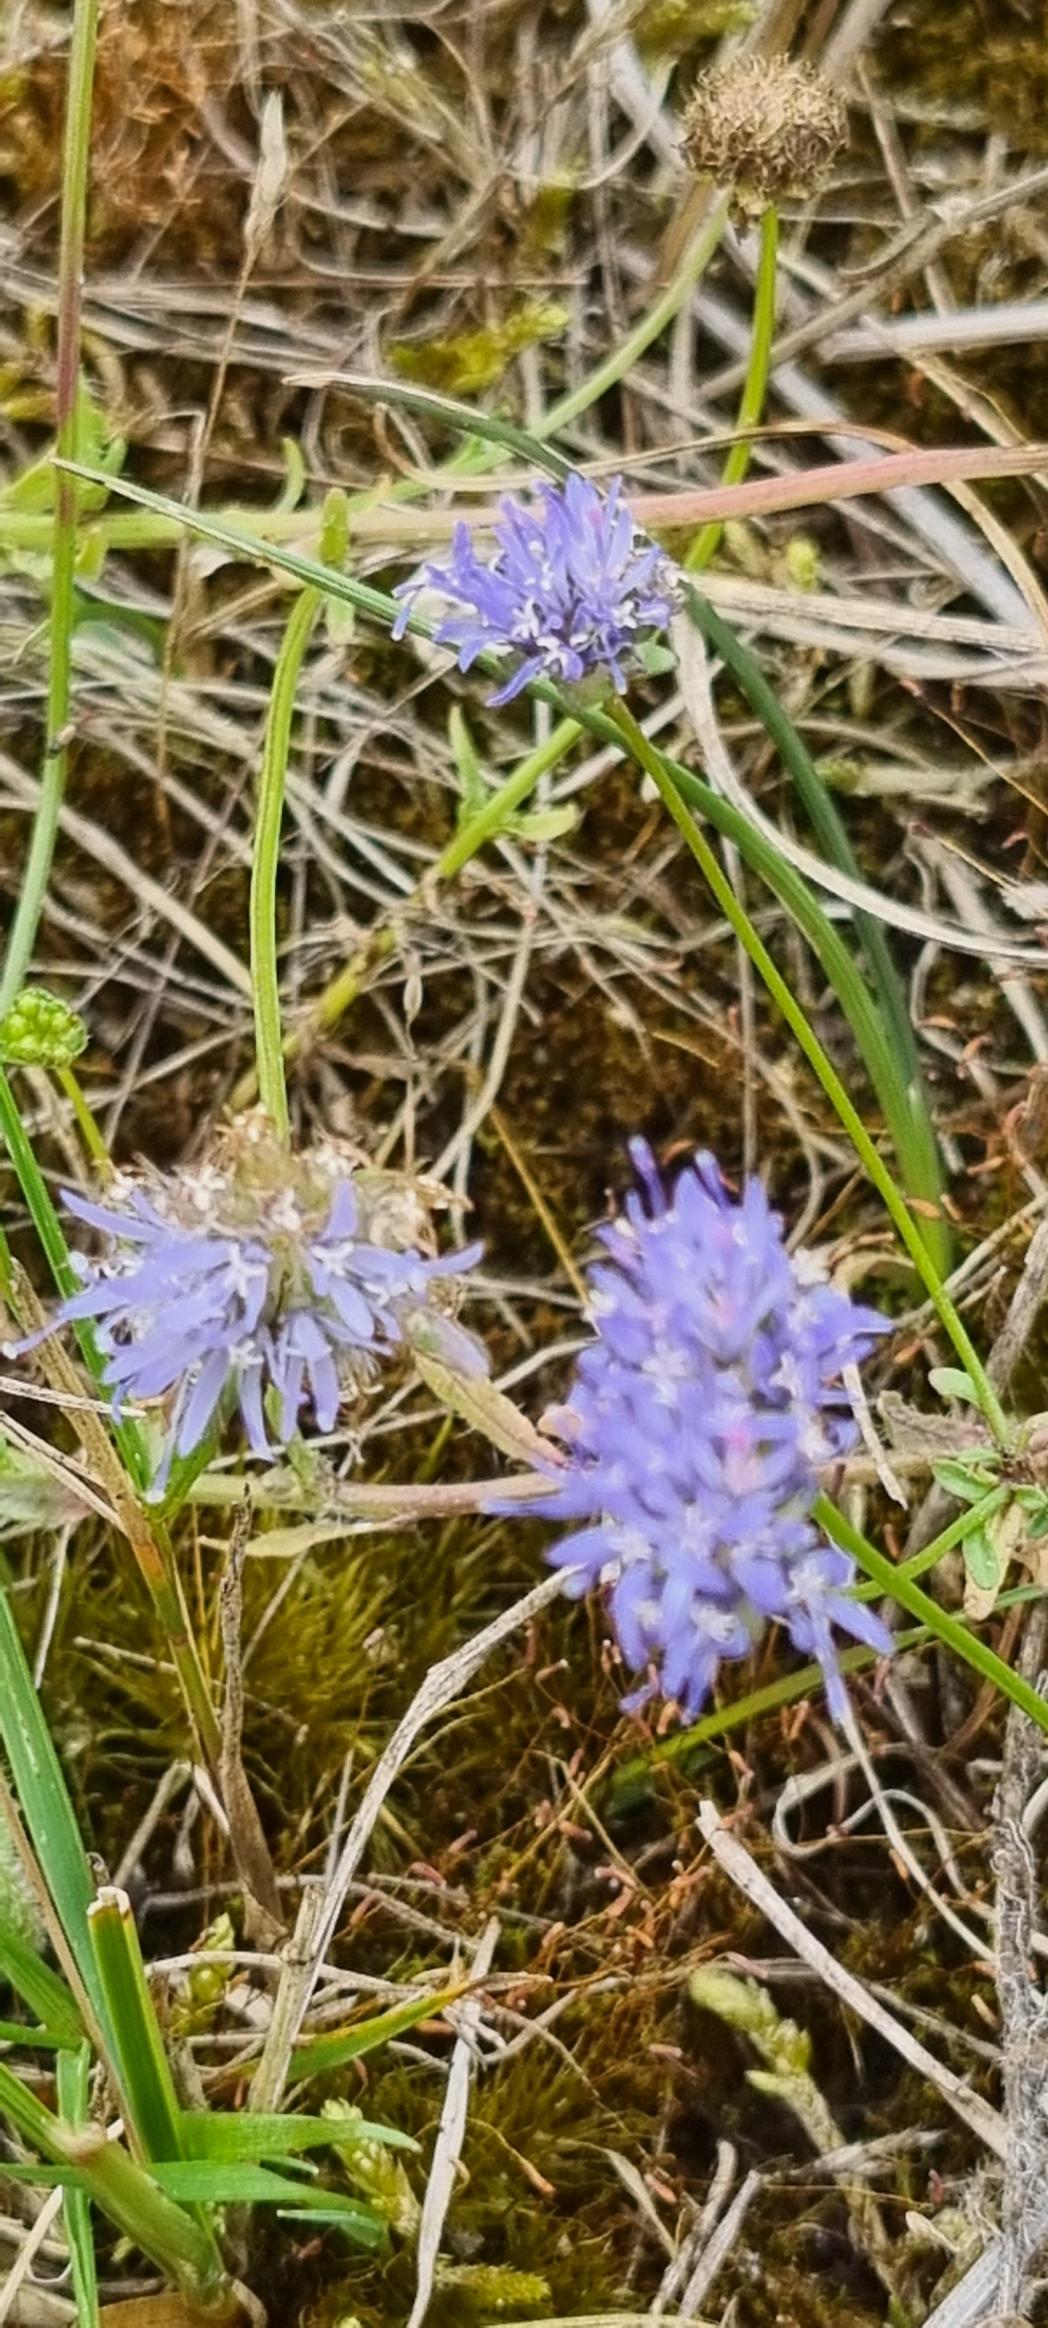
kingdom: Plantae
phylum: Tracheophyta
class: Magnoliopsida
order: Asterales
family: Campanulaceae
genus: Jasione
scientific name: Jasione montana
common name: Blåmunke
